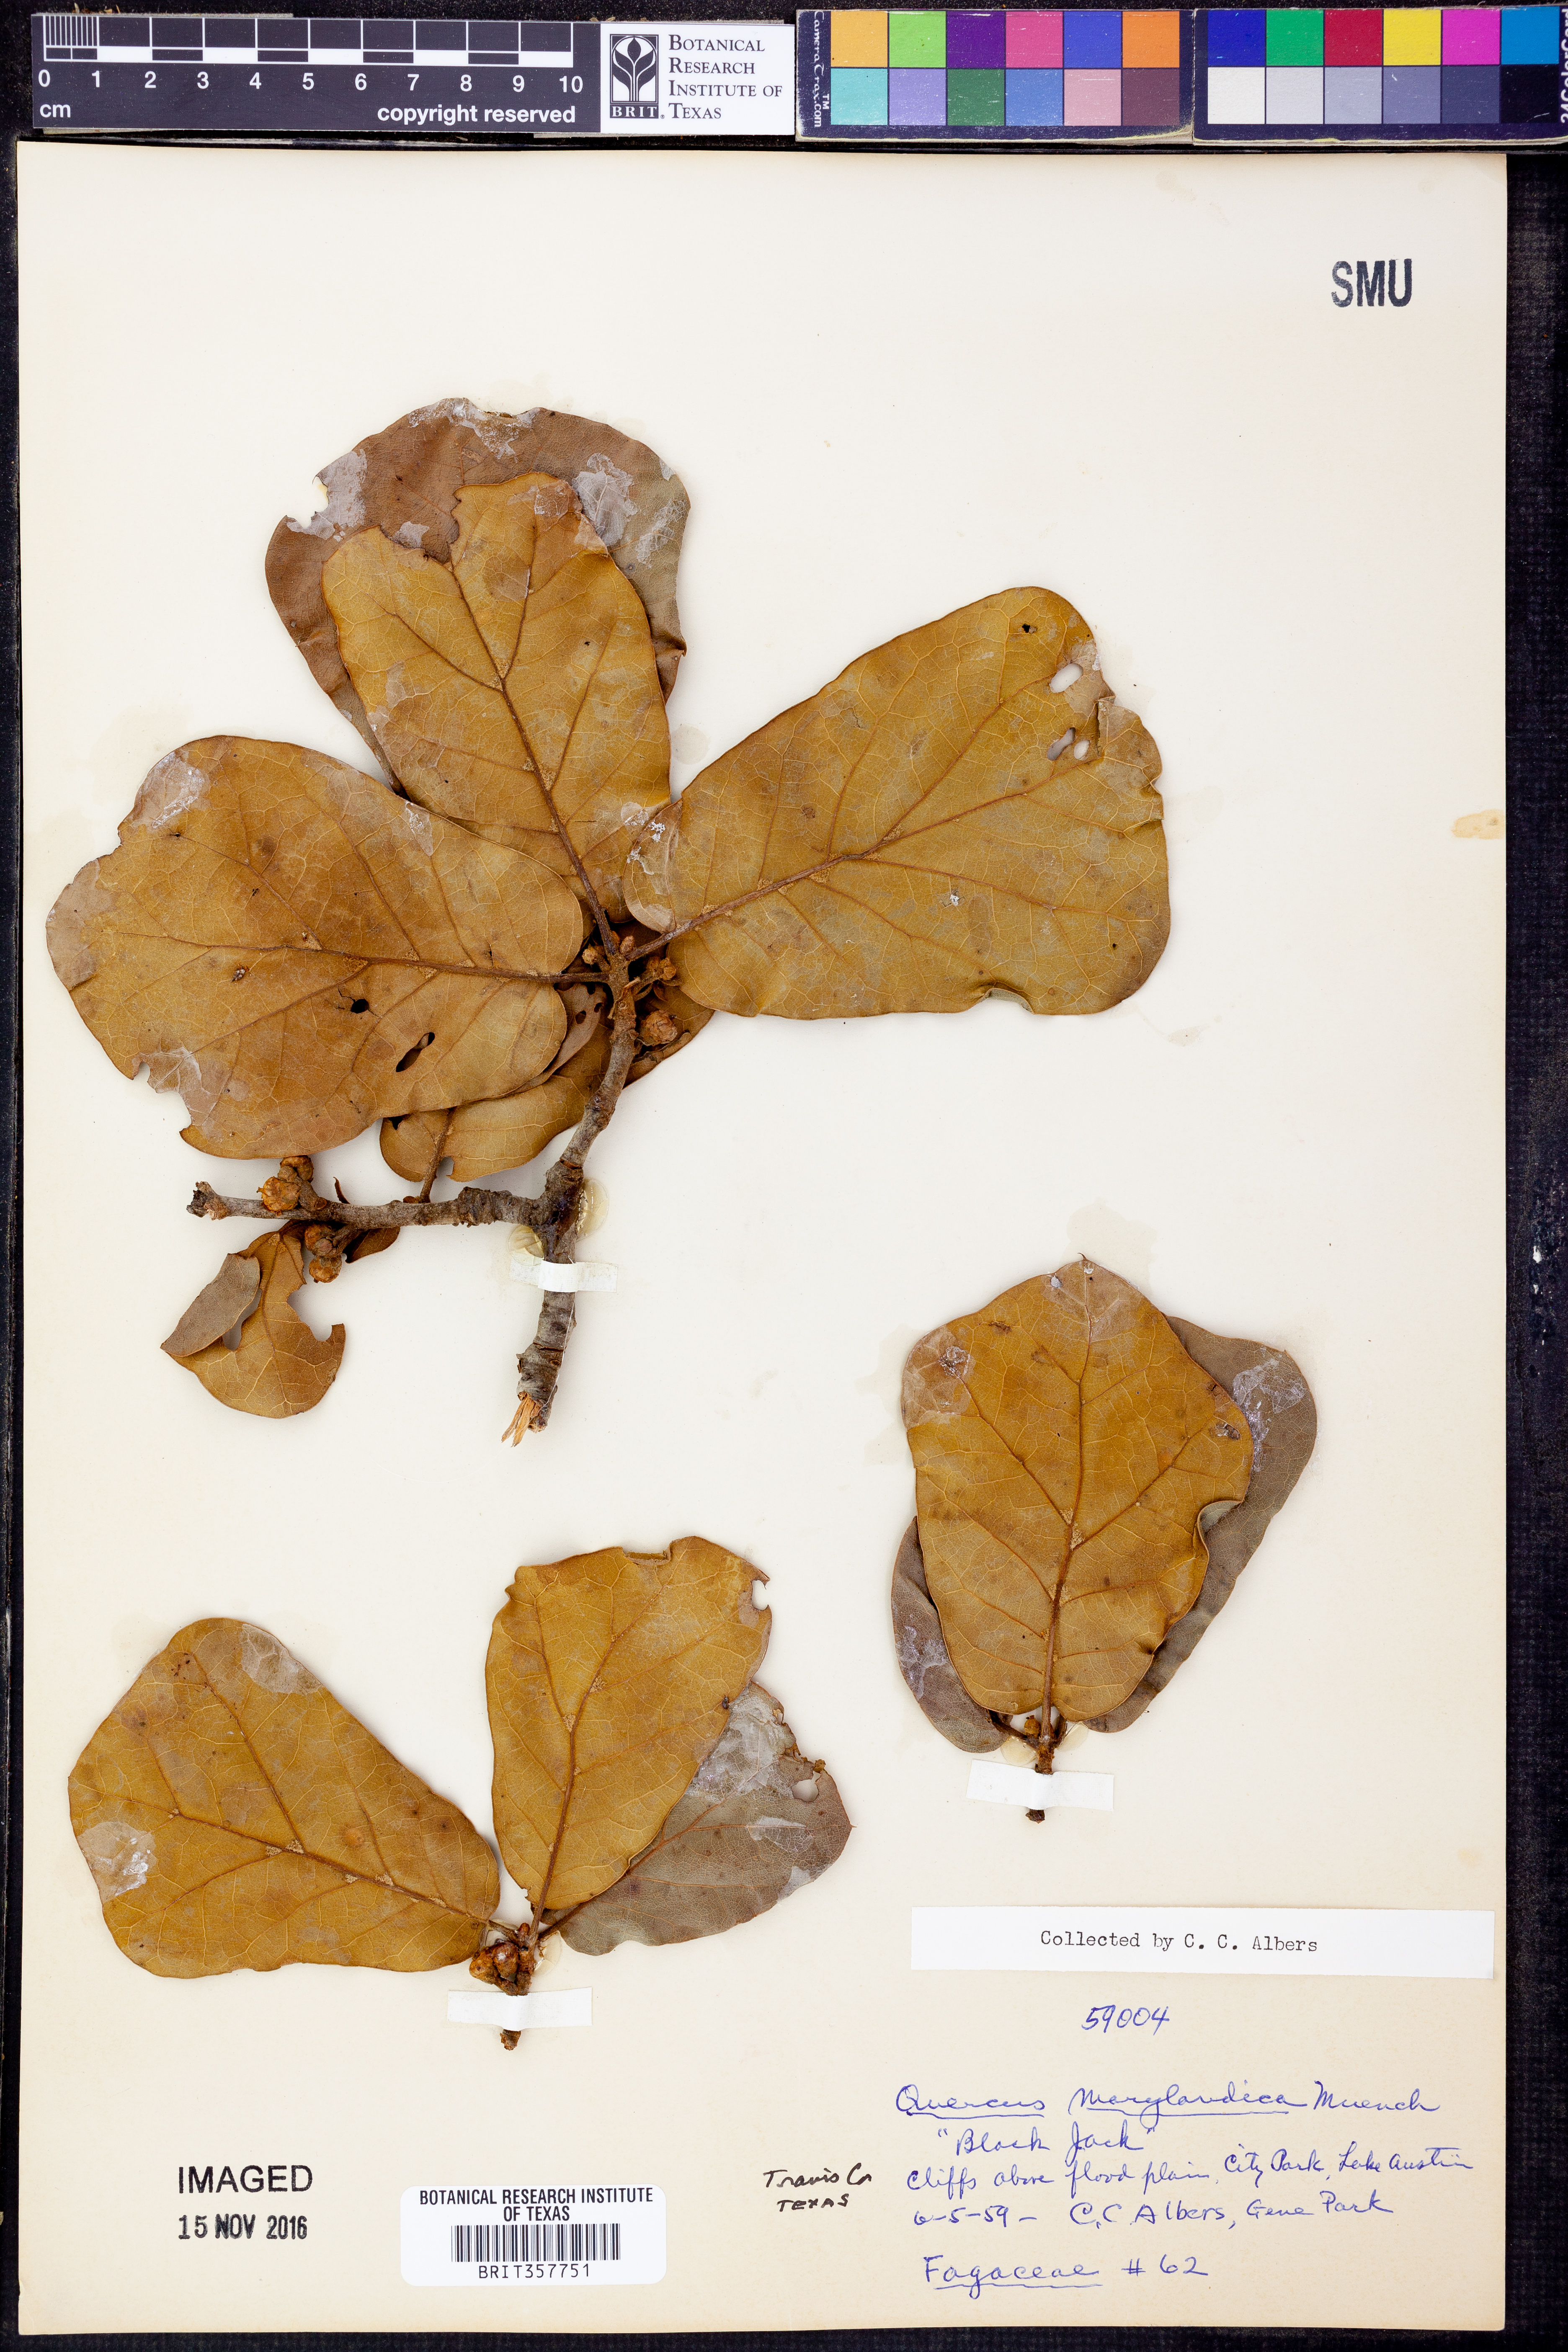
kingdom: Plantae
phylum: Tracheophyta
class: Magnoliopsida
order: Fagales
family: Fagaceae
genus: Quercus
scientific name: Quercus nigra
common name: Water oak
